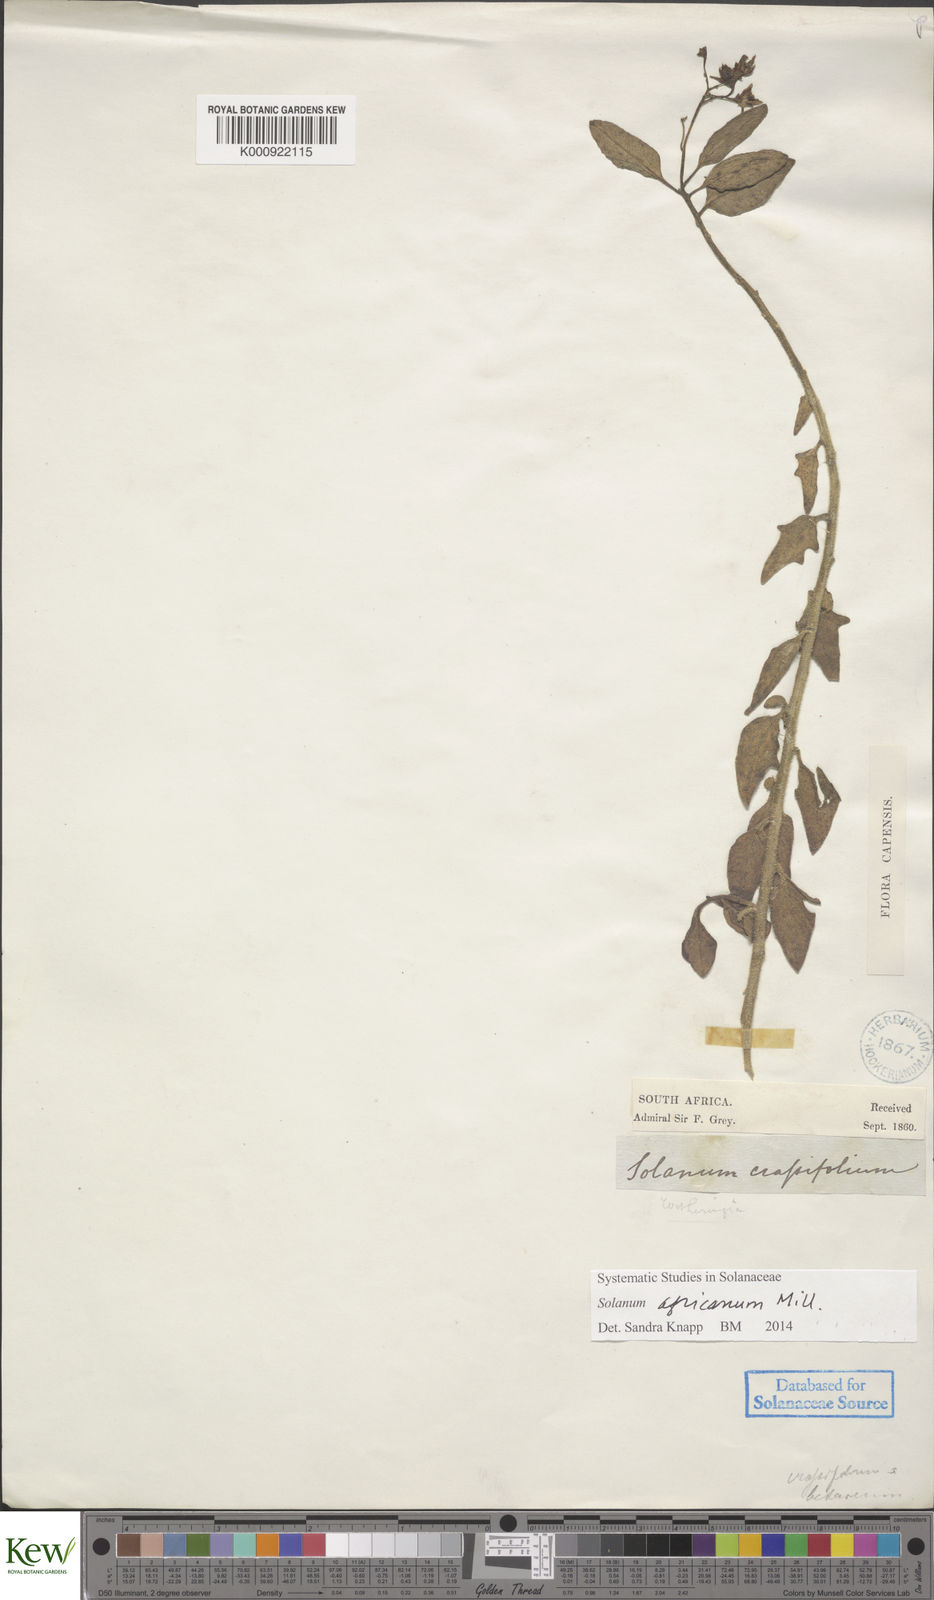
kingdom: Plantae
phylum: Tracheophyta
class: Magnoliopsida
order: Solanales
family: Solanaceae
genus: Solanum
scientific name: Solanum africanum
